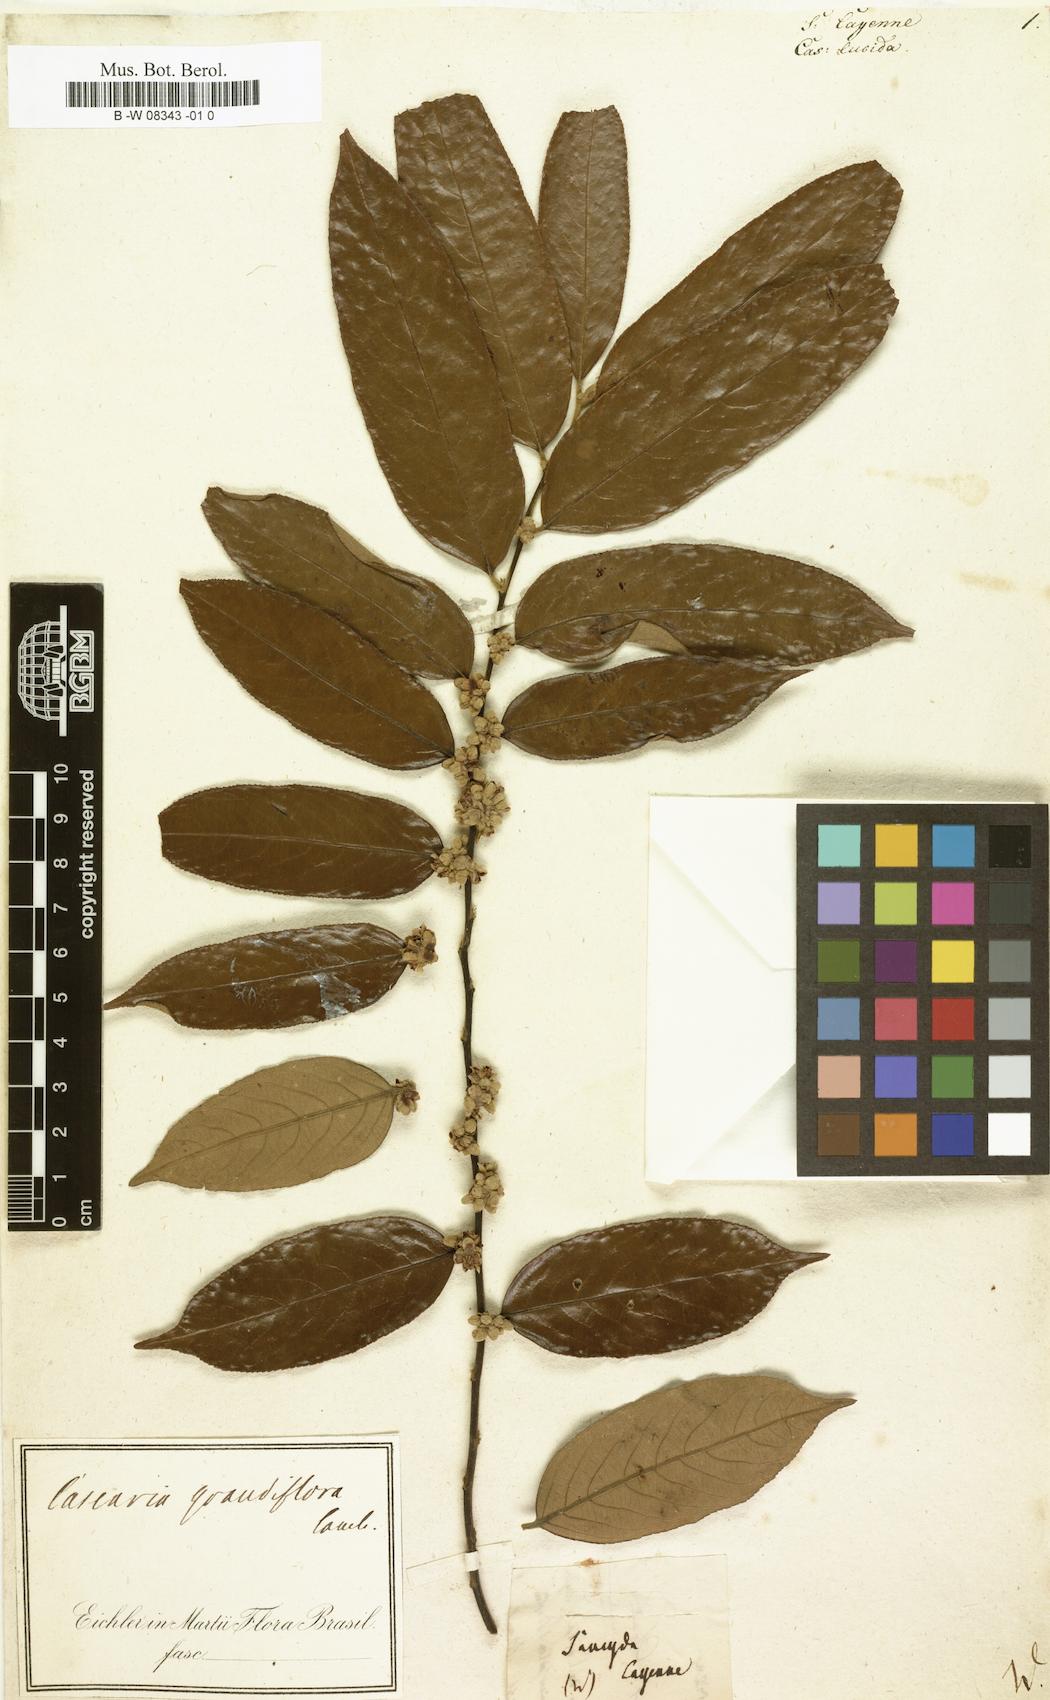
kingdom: Plantae
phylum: Tracheophyta
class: Magnoliopsida
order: Malpighiales
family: Salicaceae
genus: Casearia
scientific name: Casearia
